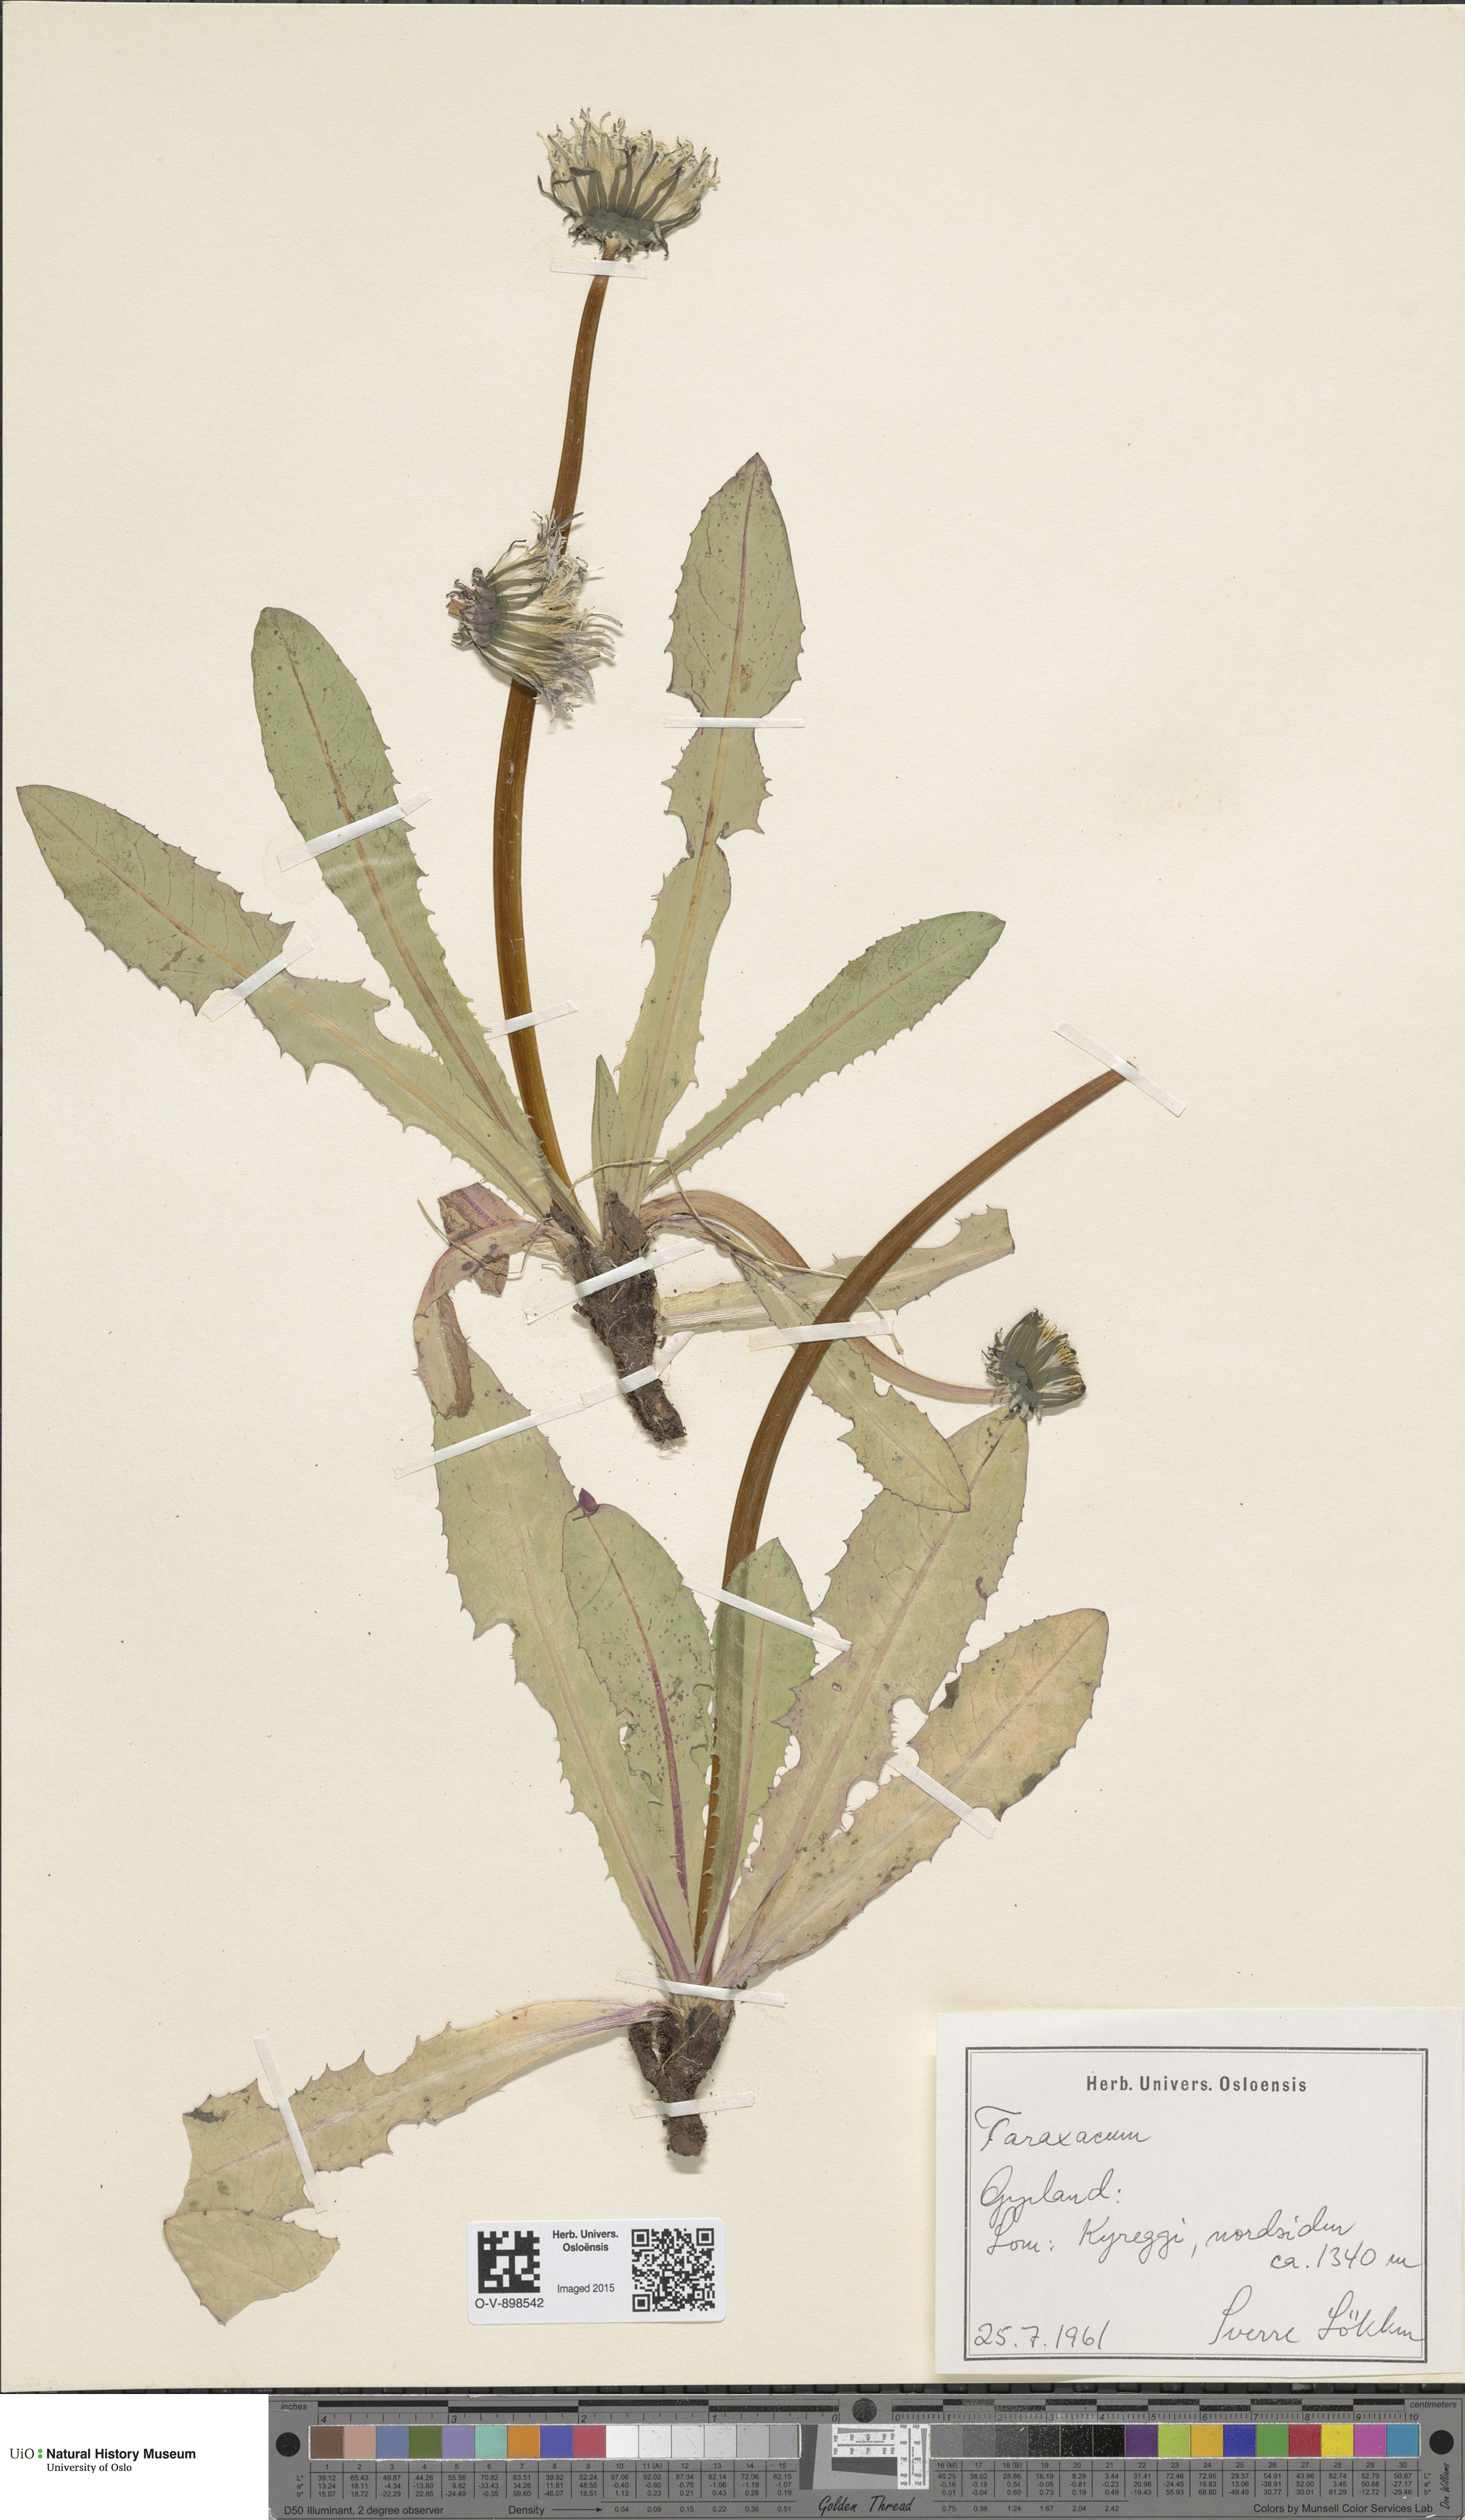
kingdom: Plantae
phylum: Tracheophyta
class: Magnoliopsida
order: Asterales
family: Asteraceae
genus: Taraxacum
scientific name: Taraxacum
